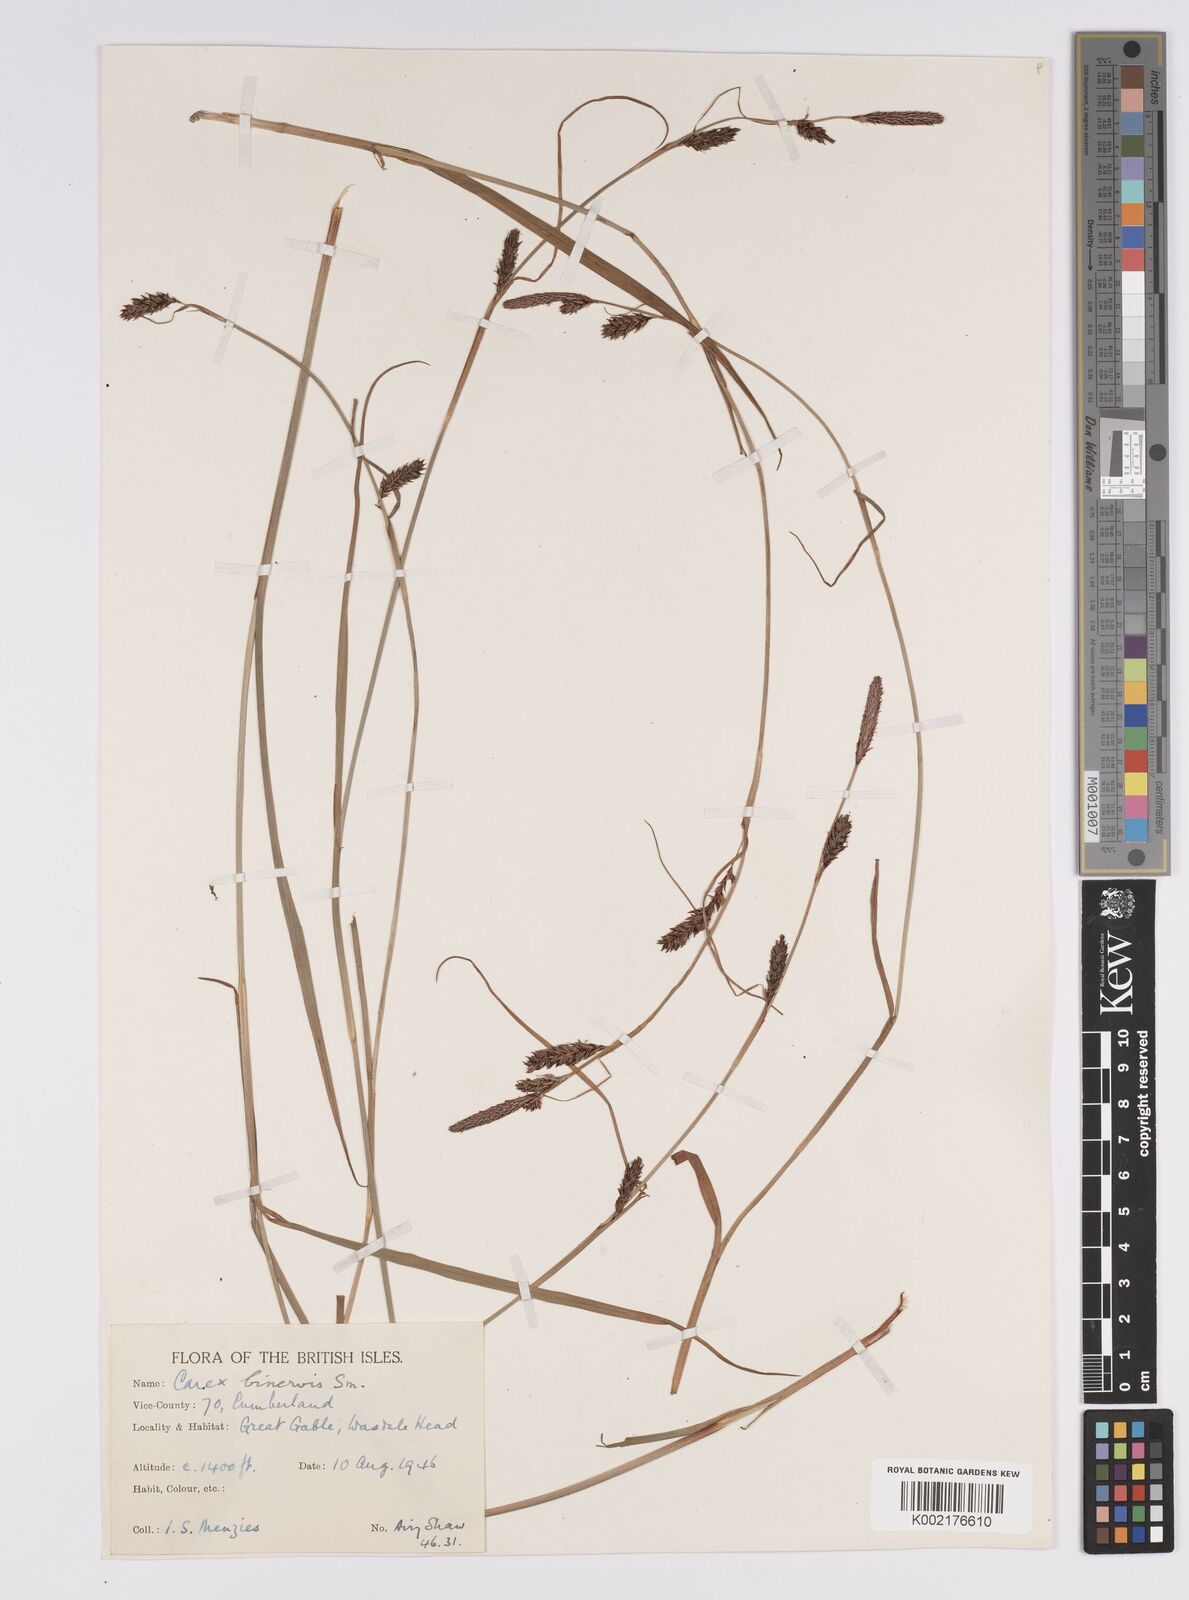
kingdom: Plantae
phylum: Tracheophyta
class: Liliopsida
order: Poales
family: Cyperaceae
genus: Carex
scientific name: Carex binervis
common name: Green-ribbed sedge
